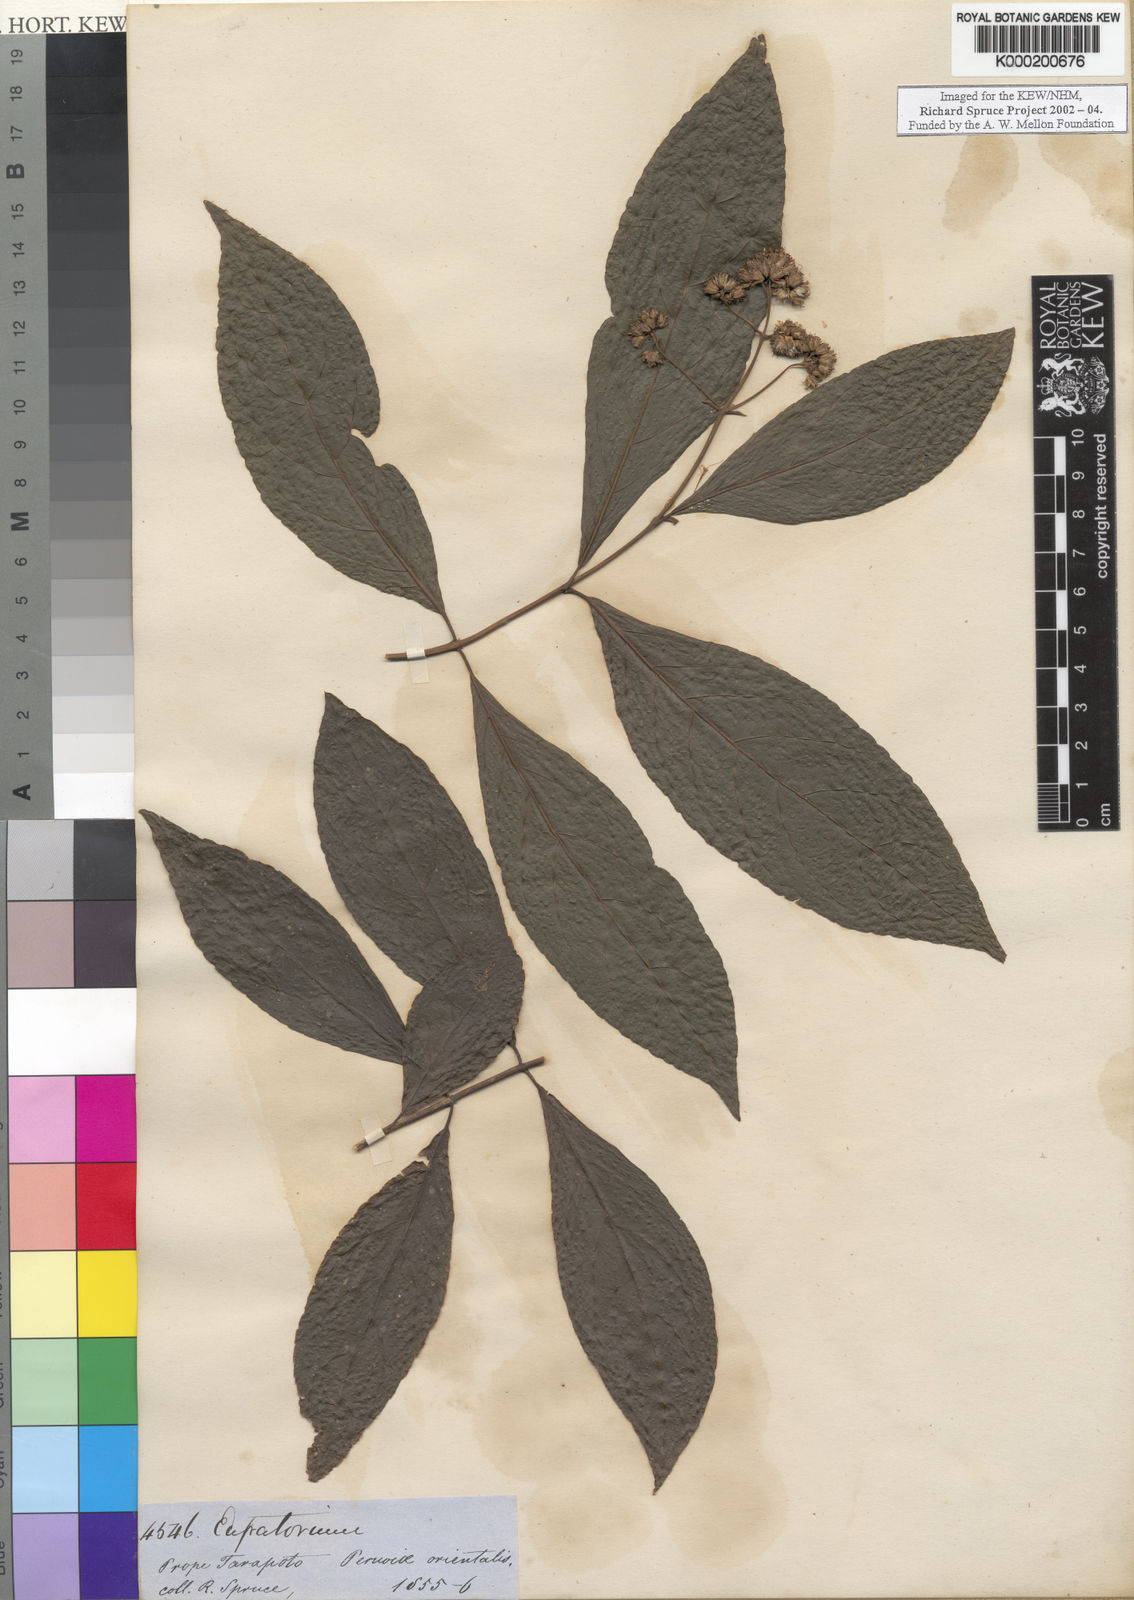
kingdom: Plantae
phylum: Tracheophyta
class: Magnoliopsida
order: Asterales
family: Asteraceae
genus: Eupatorium
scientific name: Eupatorium
